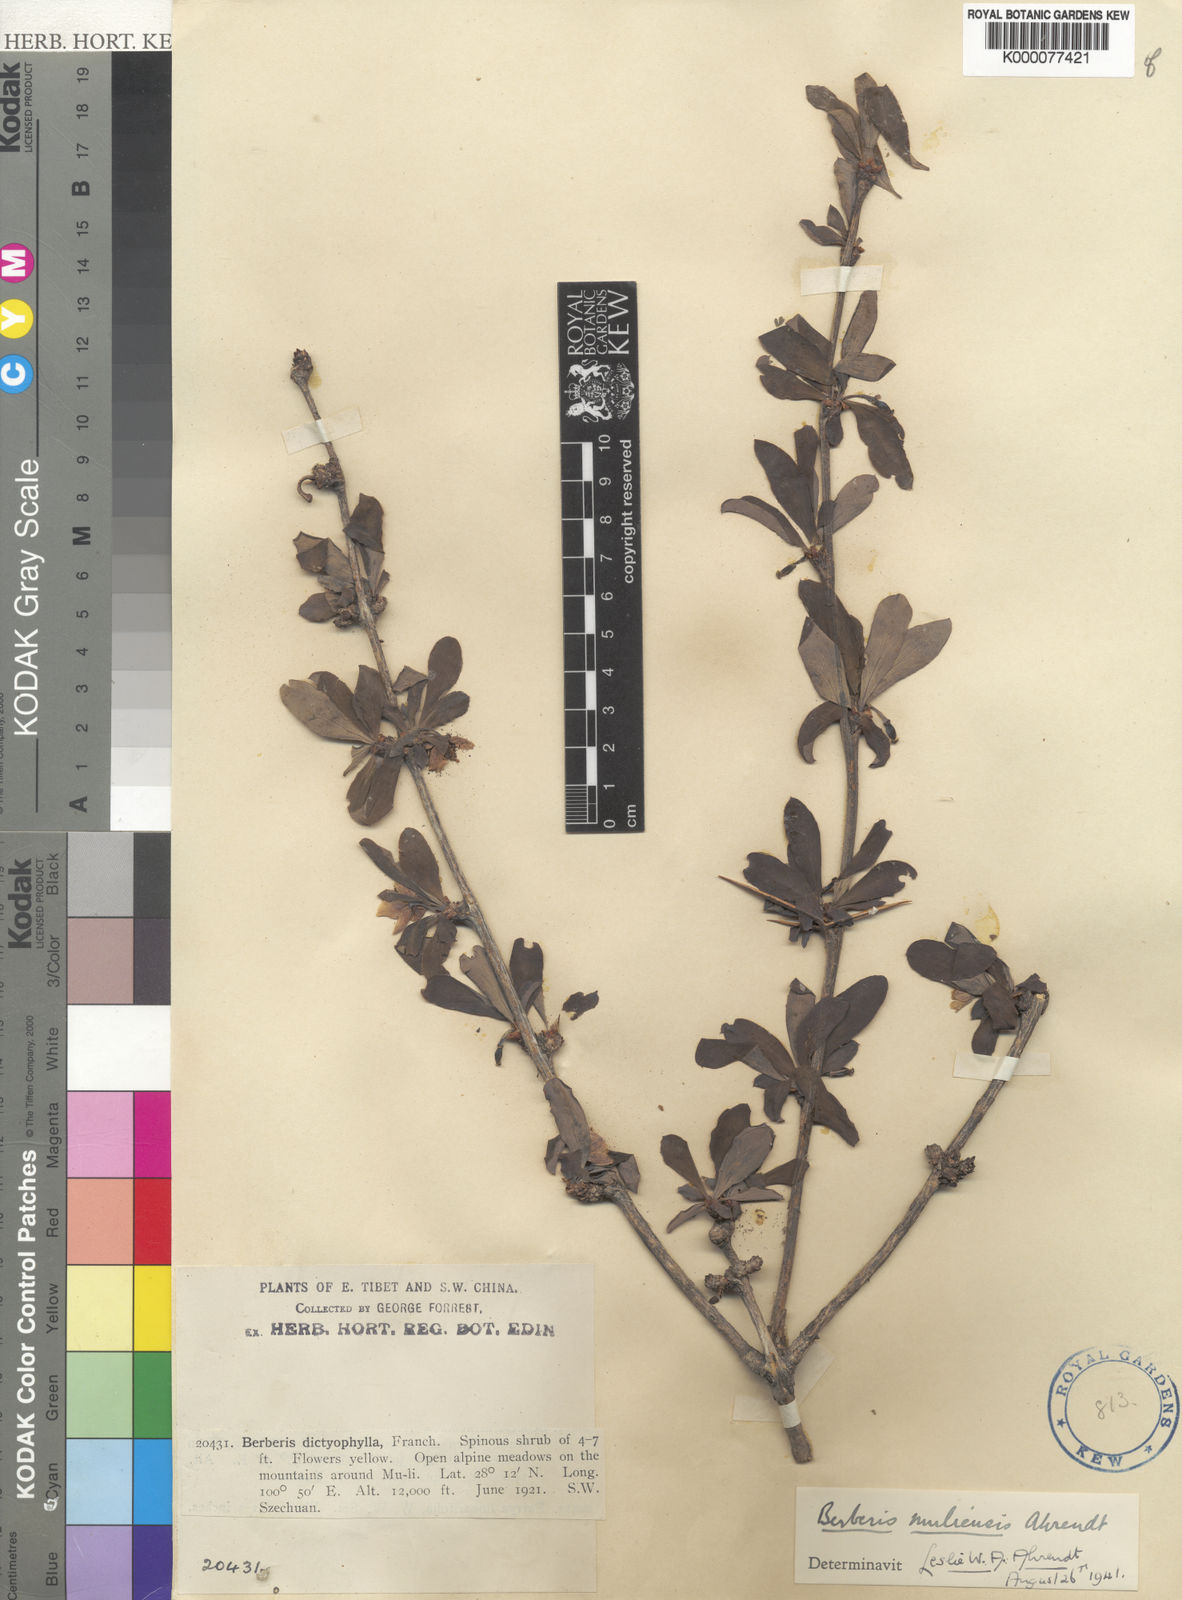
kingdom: Plantae
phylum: Tracheophyta
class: Magnoliopsida
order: Ranunculales
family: Berberidaceae
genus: Berberis
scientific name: Berberis muliensis
